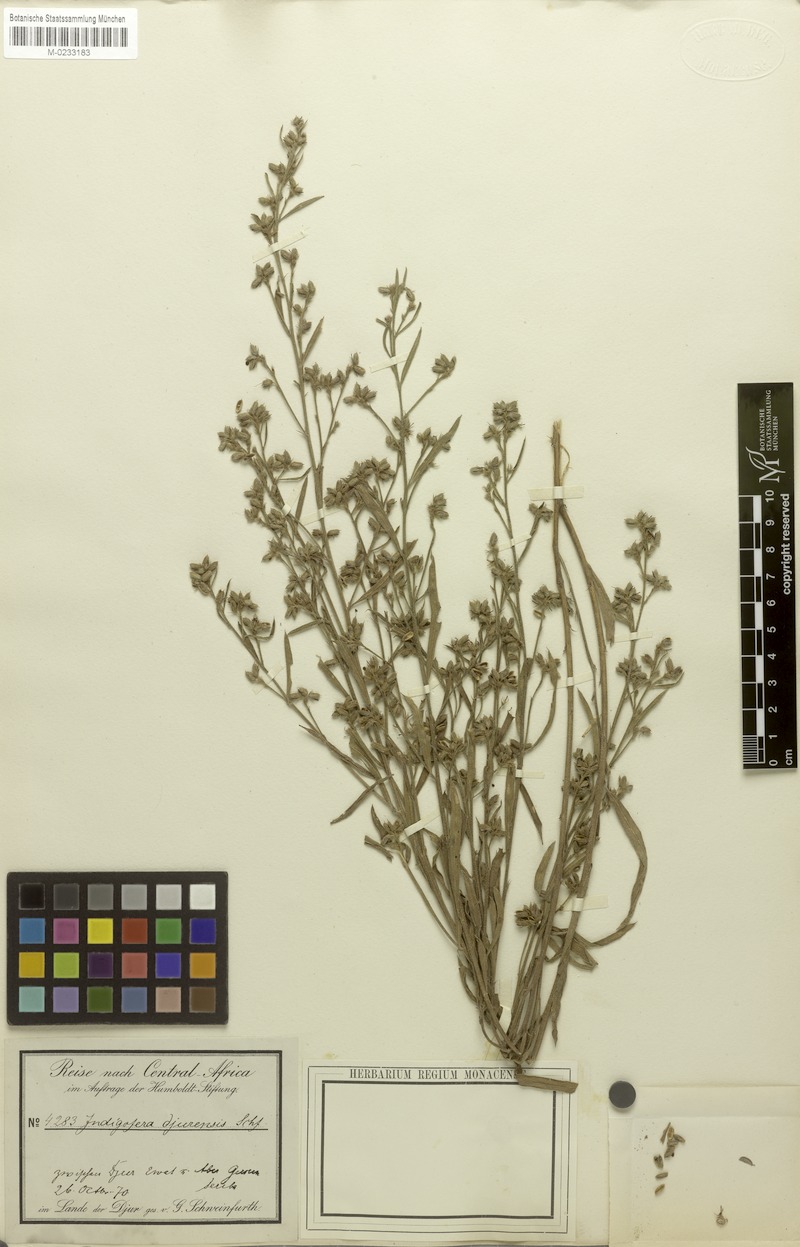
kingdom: Plantae
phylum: Tracheophyta
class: Magnoliopsida
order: Fabales
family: Fabaceae
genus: Indigofera
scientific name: Indigofera
